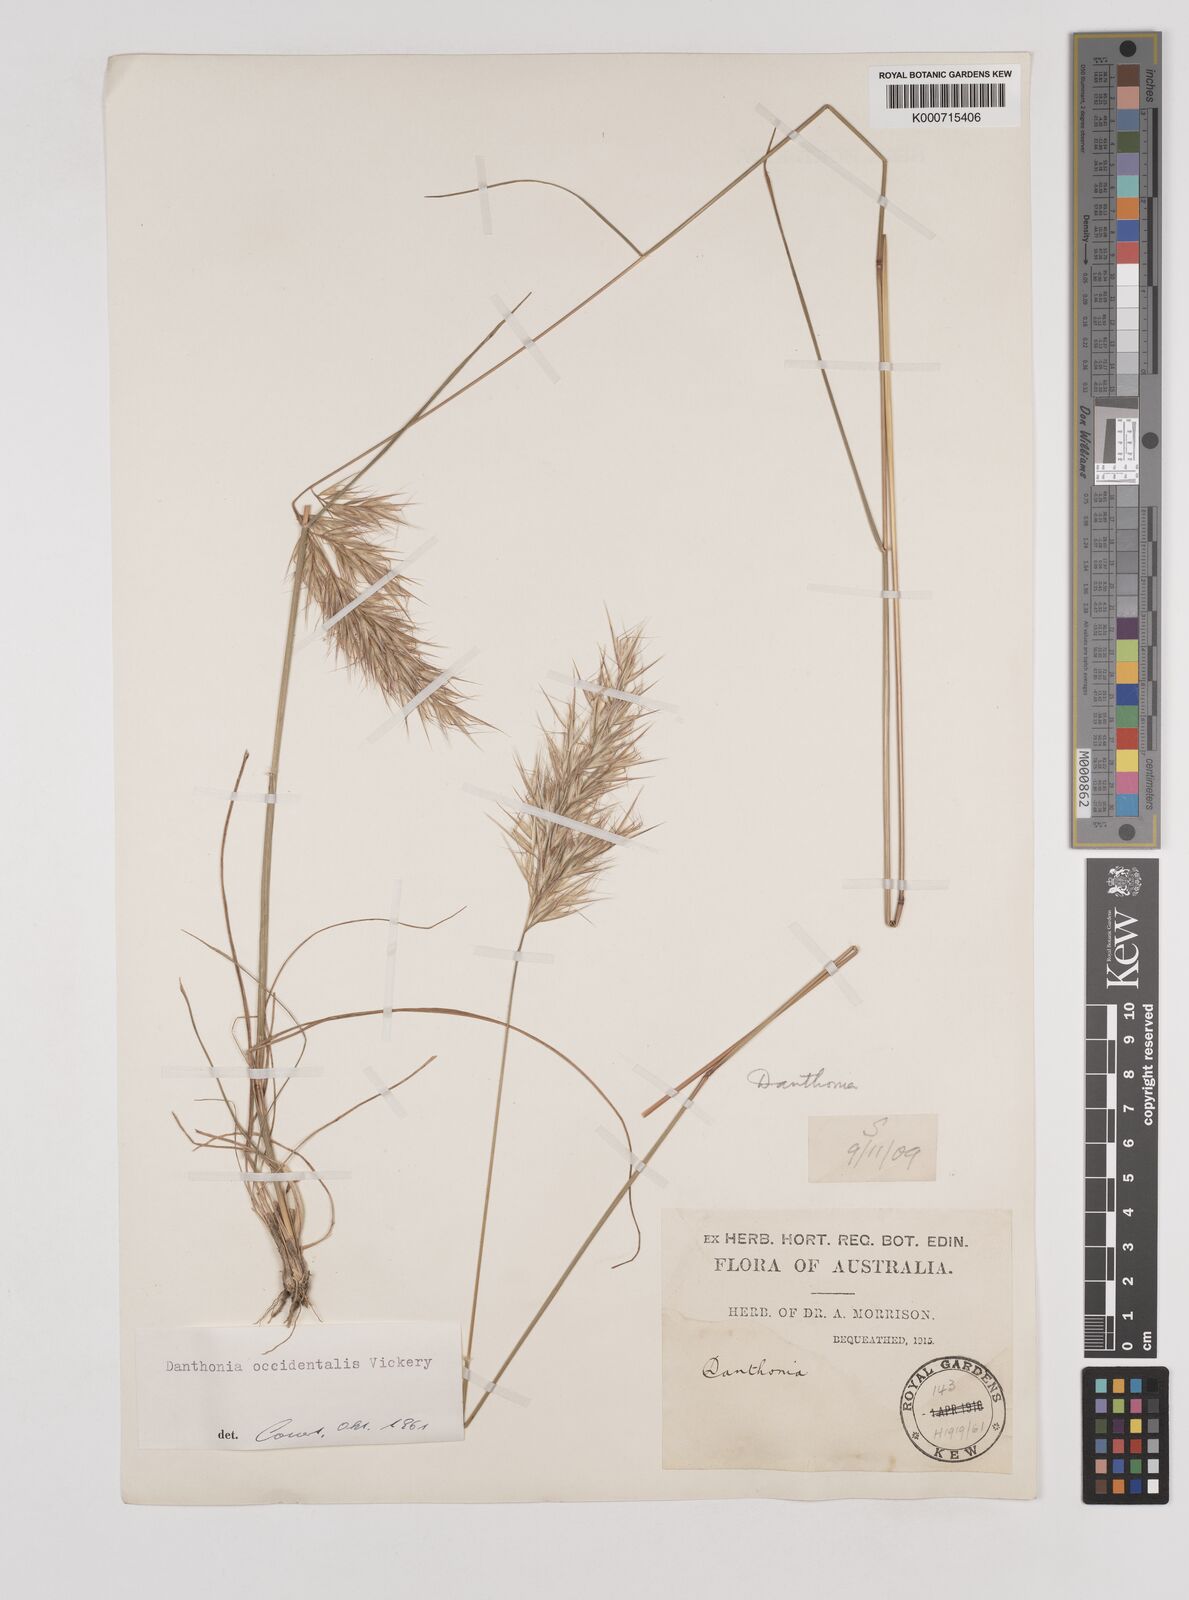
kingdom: Plantae
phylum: Tracheophyta
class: Liliopsida
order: Poales
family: Poaceae
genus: Rytidosperma
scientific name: Rytidosperma occidentale
